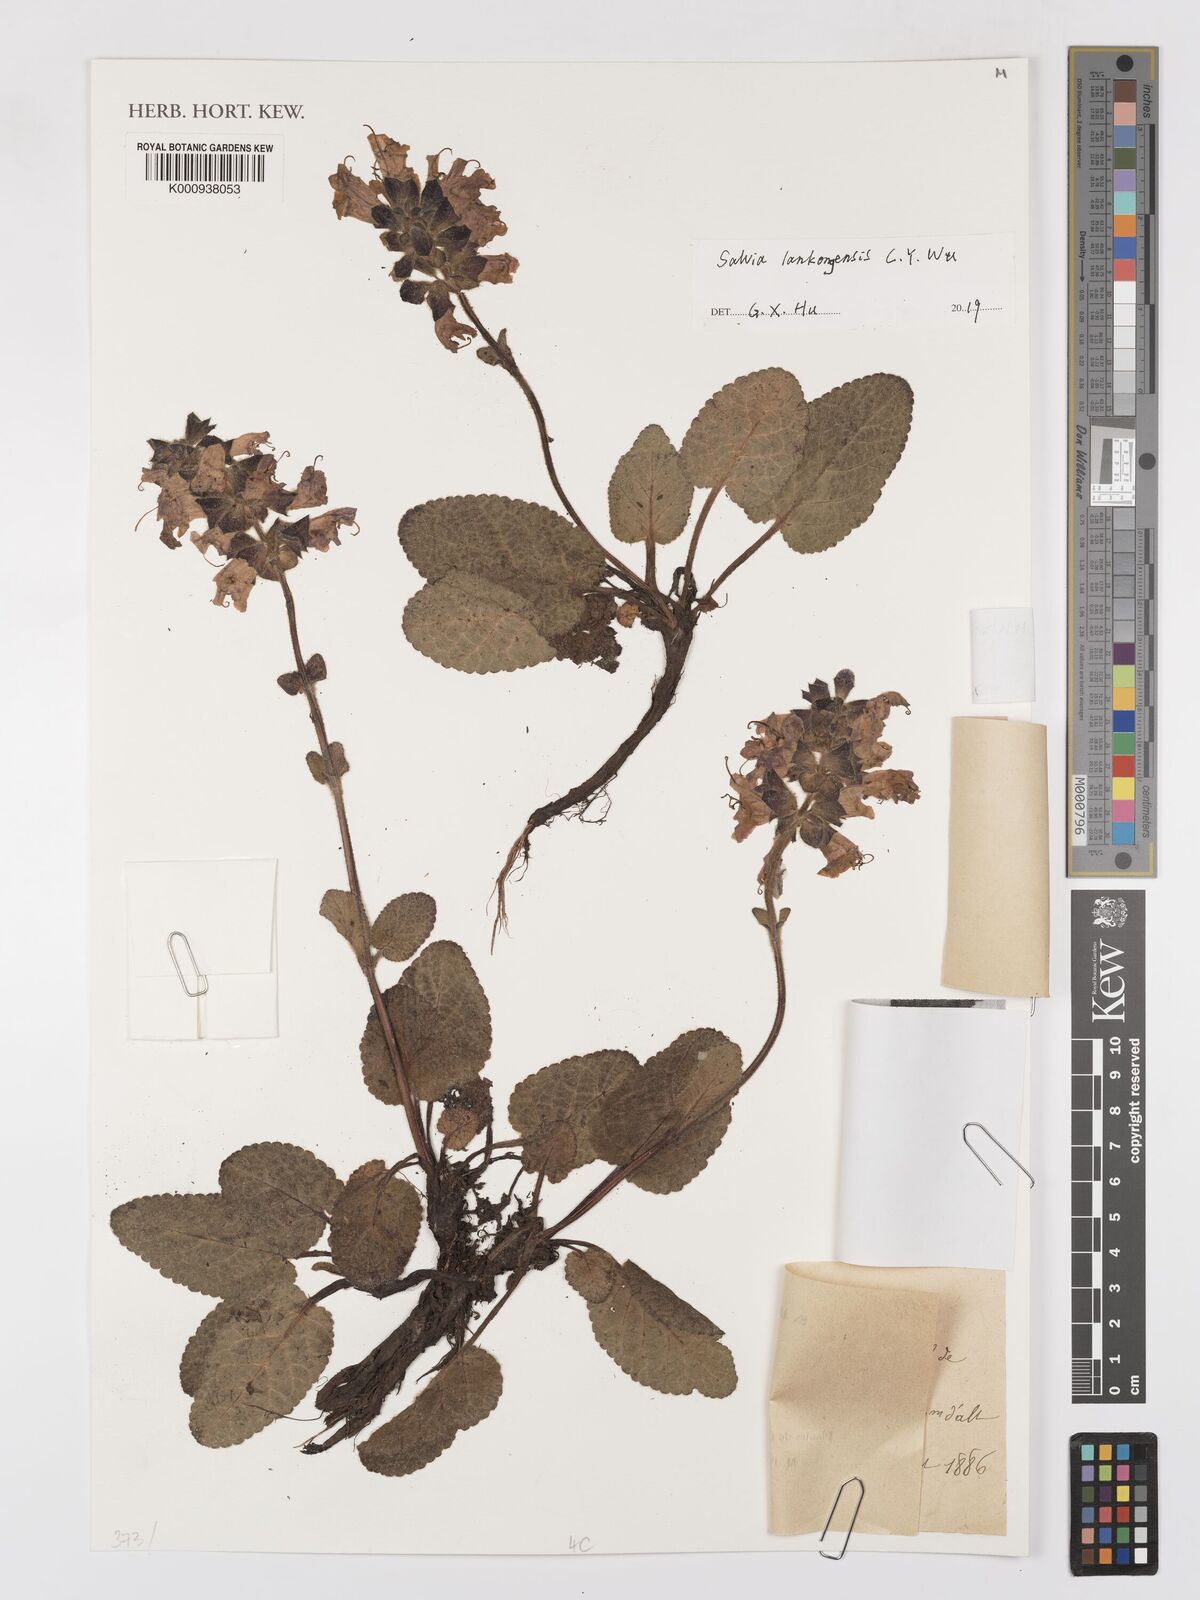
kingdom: Plantae
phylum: Tracheophyta
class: Magnoliopsida
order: Lamiales
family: Lamiaceae
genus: Salvia
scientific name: Salvia lankongensis
